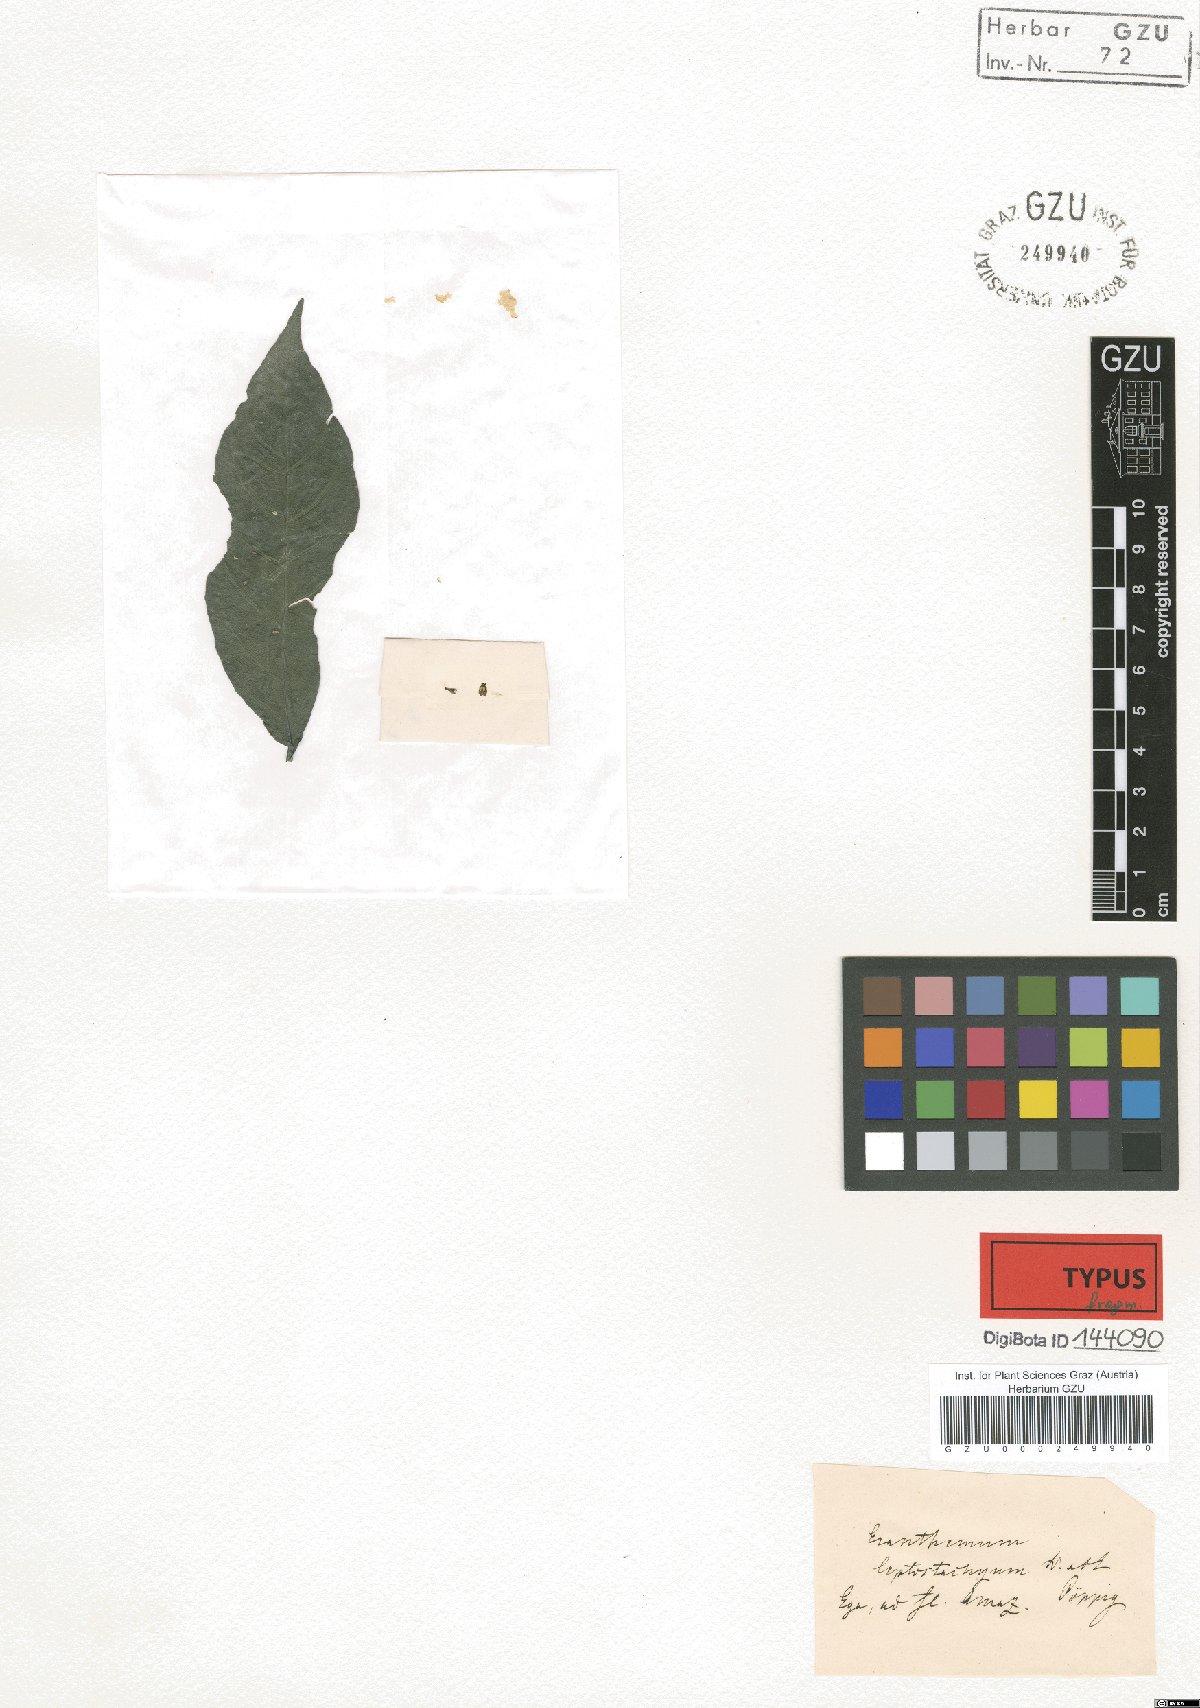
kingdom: Plantae
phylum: Tracheophyta
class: Magnoliopsida
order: Lamiales
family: Acanthaceae
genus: Pseuderanthemum
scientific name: Pseuderanthemum leptostachyum
